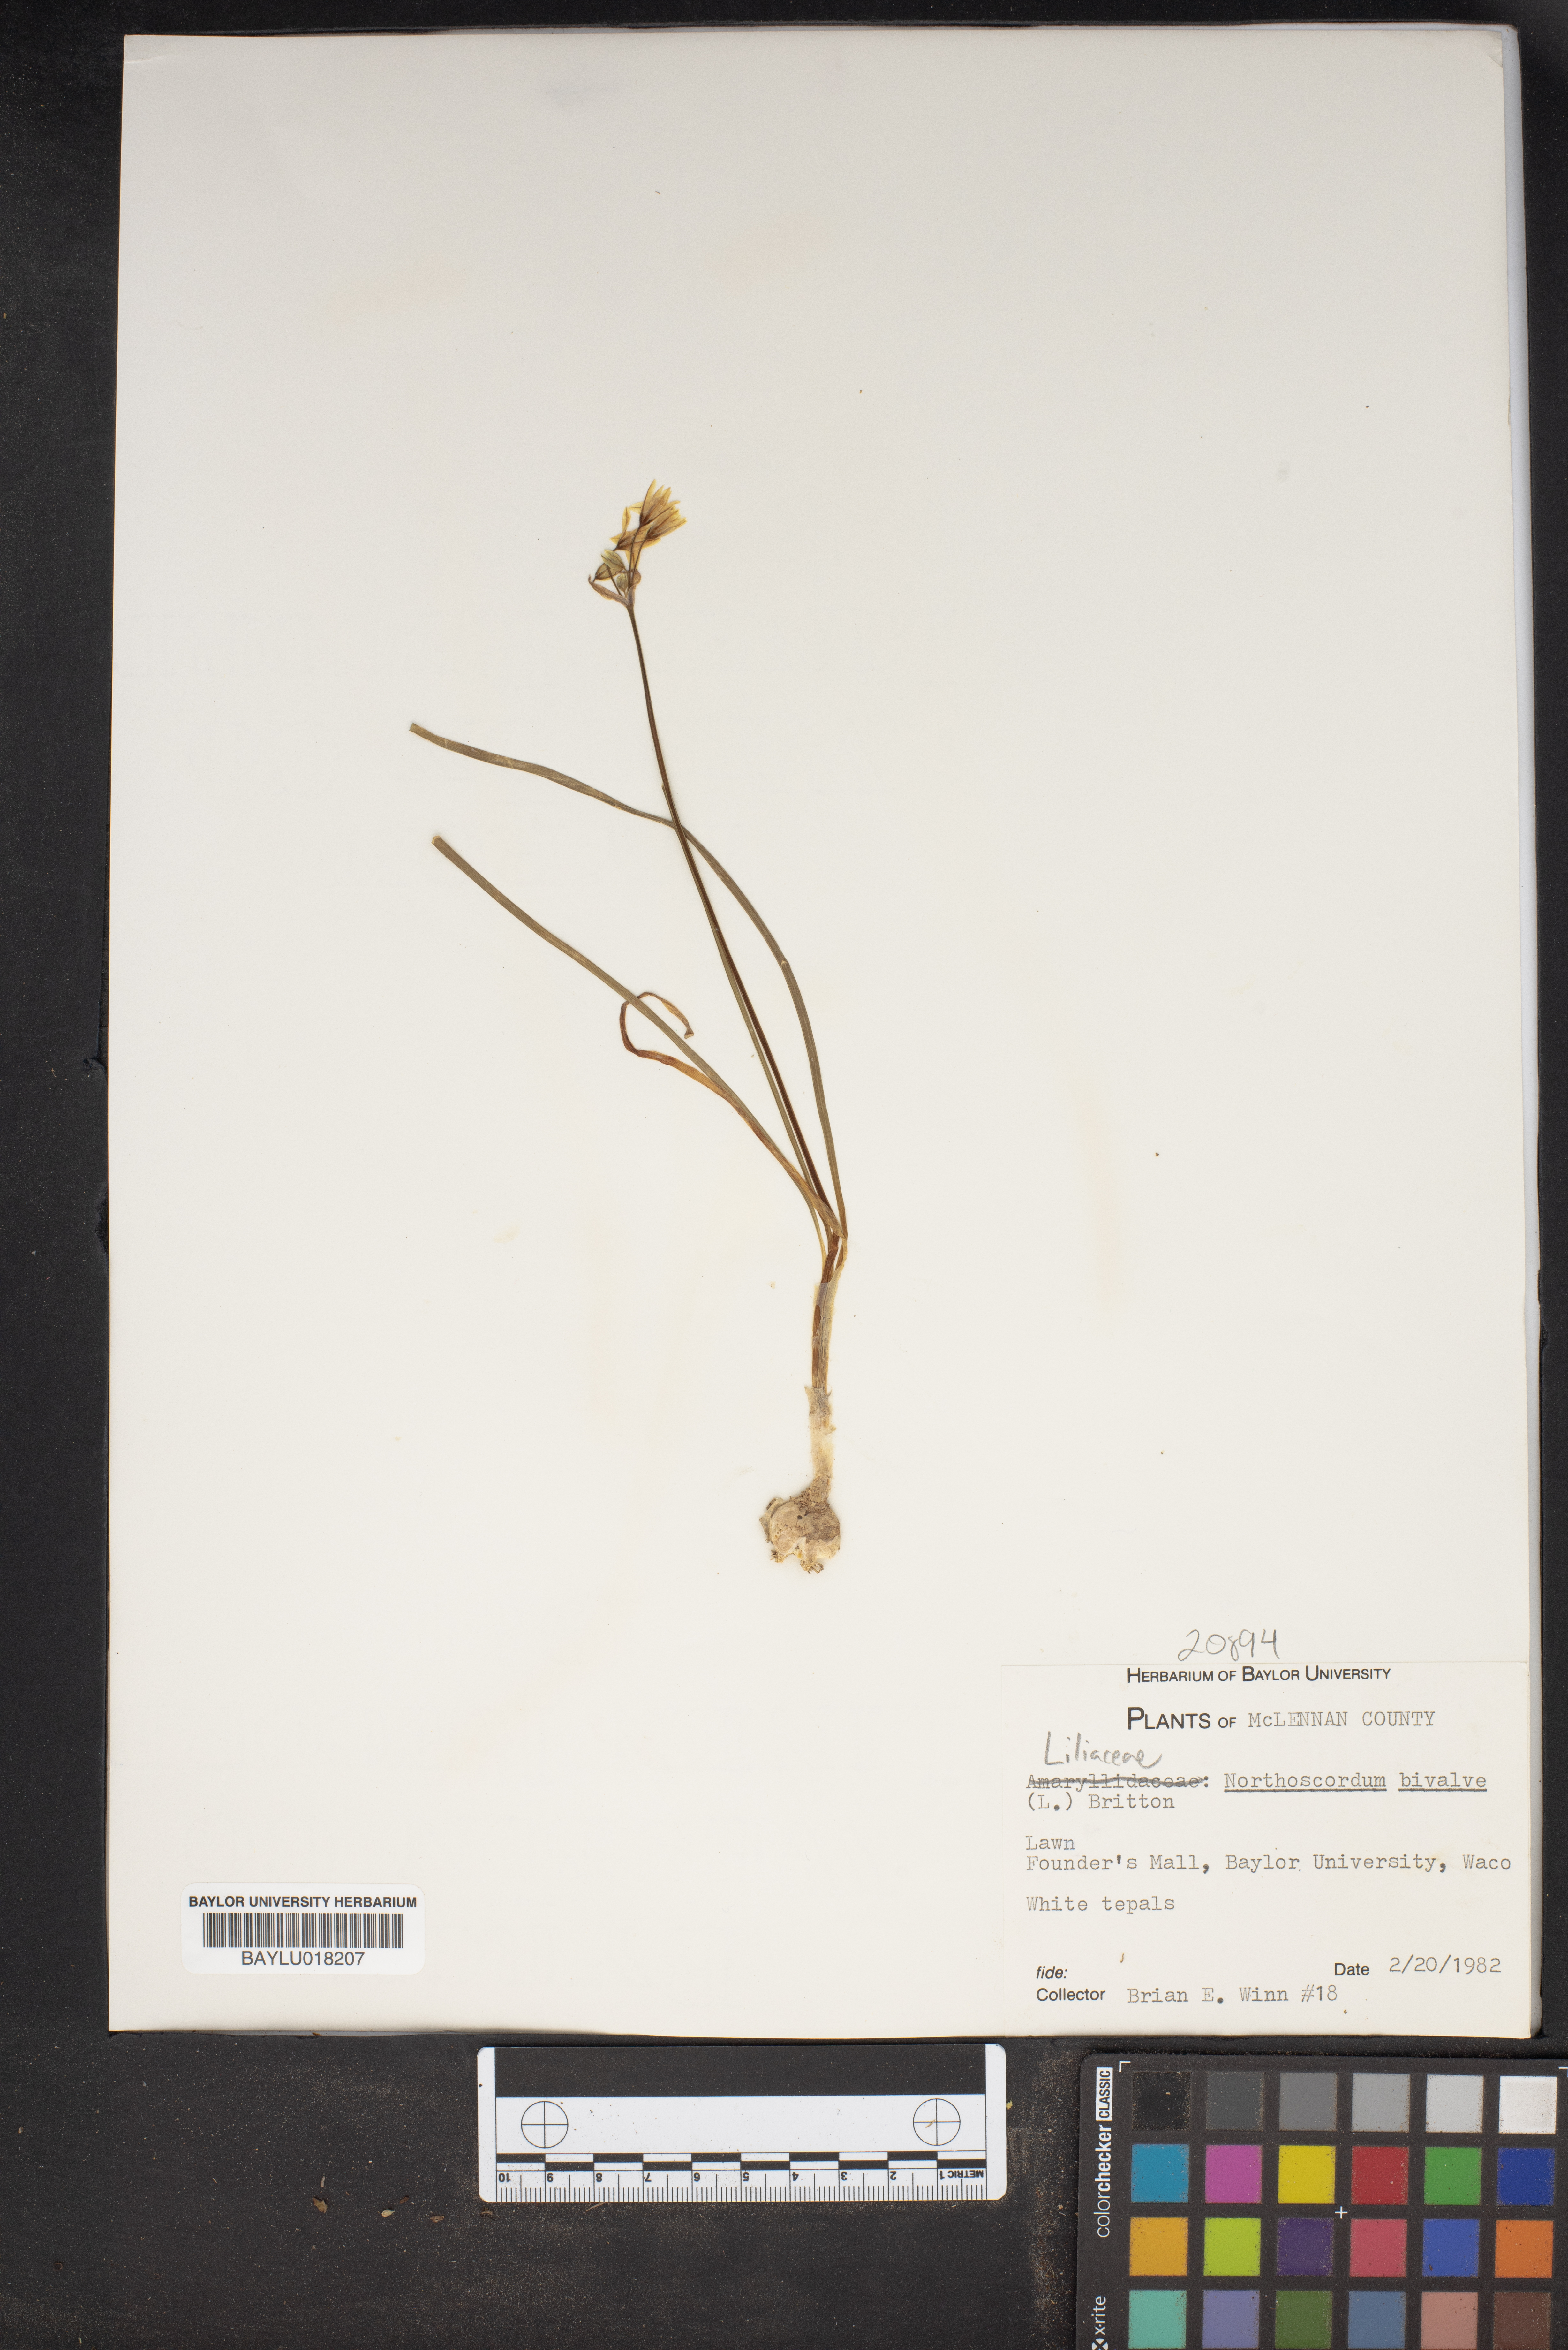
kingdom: Plantae
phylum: Tracheophyta
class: Liliopsida
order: Asparagales
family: Amaryllidaceae
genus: Nothoscordum
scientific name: Nothoscordum bivalve
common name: Crow-poison
